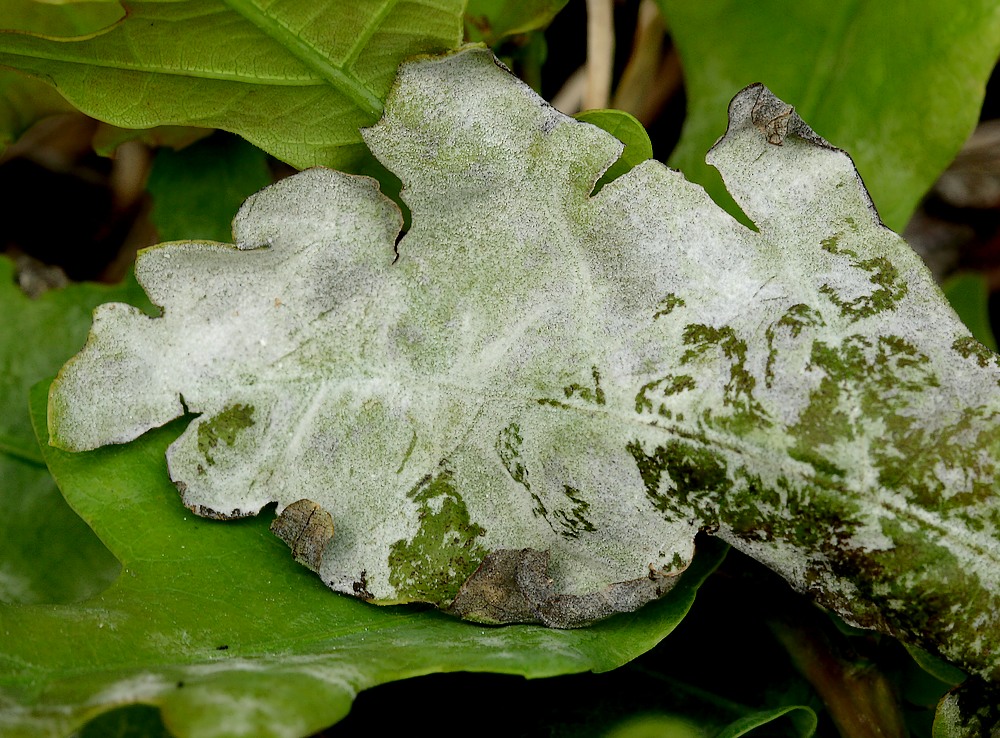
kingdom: Fungi
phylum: Ascomycota
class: Leotiomycetes
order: Helotiales
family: Erysiphaceae
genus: Erysiphe
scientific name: Erysiphe alphitoides
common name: ege-meldug
